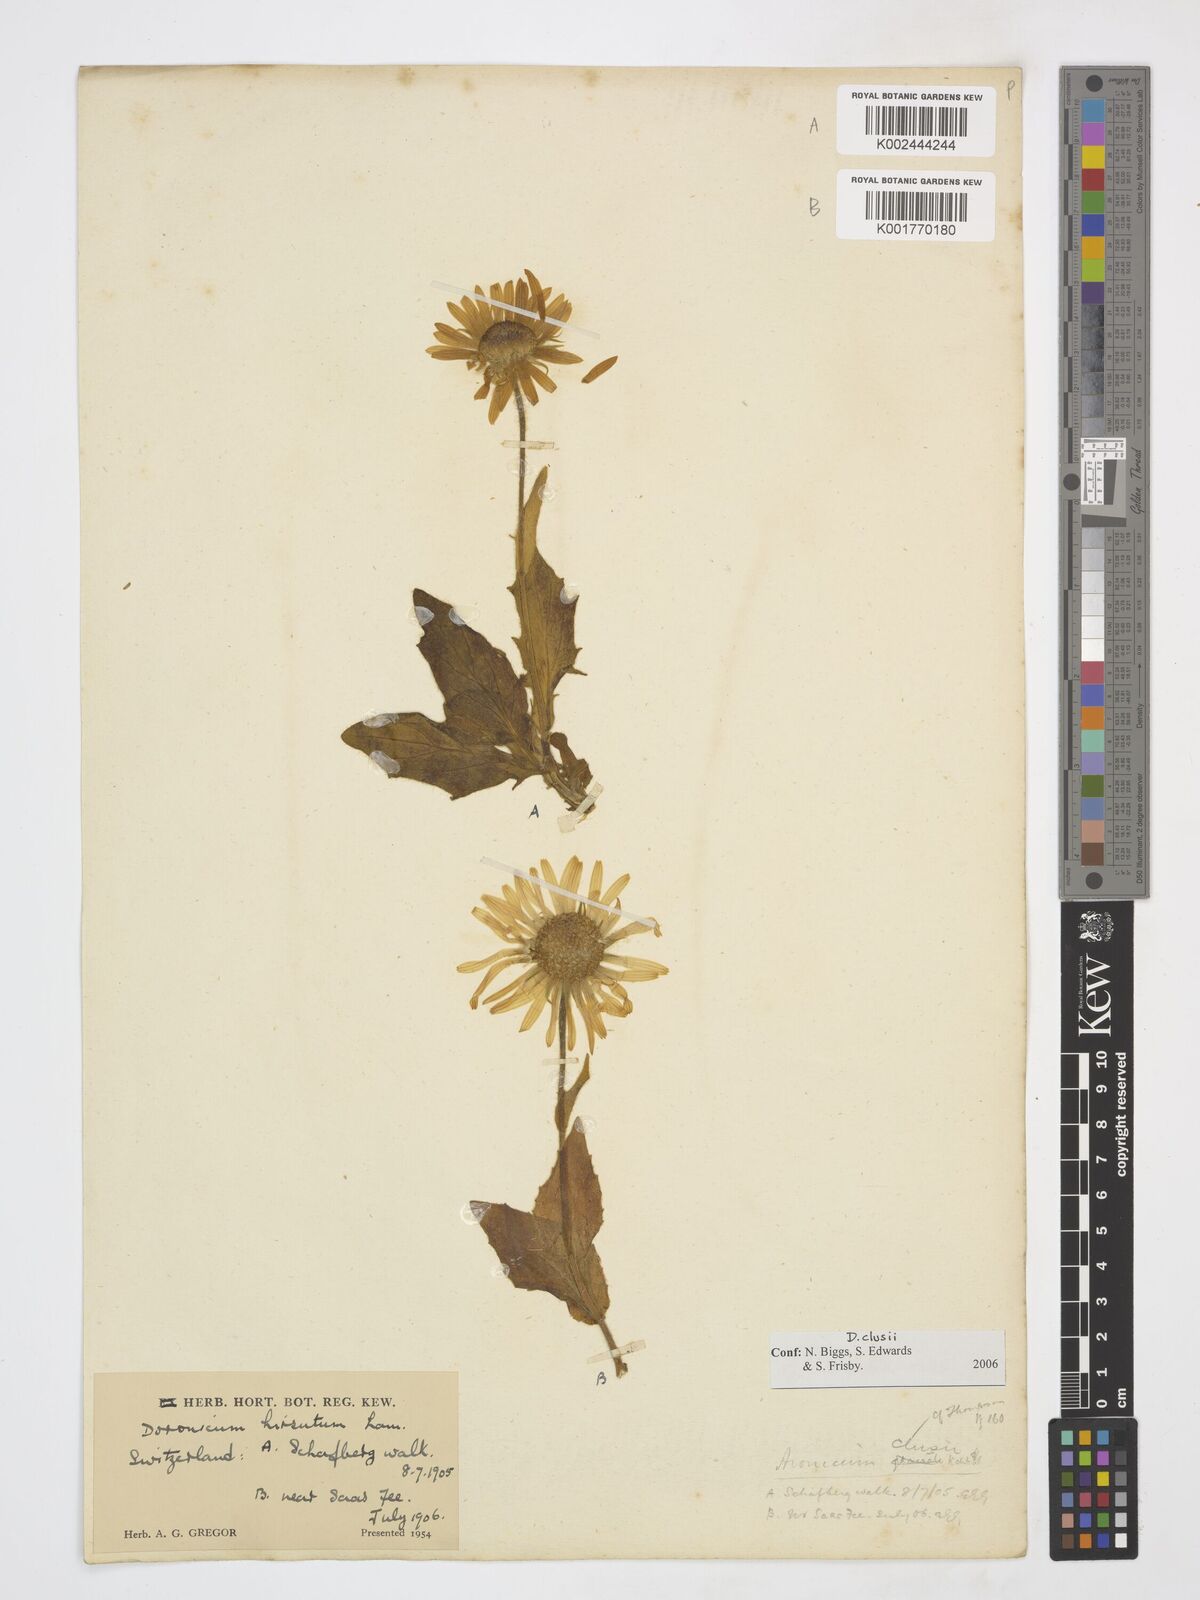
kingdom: Plantae
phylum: Tracheophyta
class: Magnoliopsida
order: Asterales
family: Asteraceae
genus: Doronicum
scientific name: Doronicum clusii
